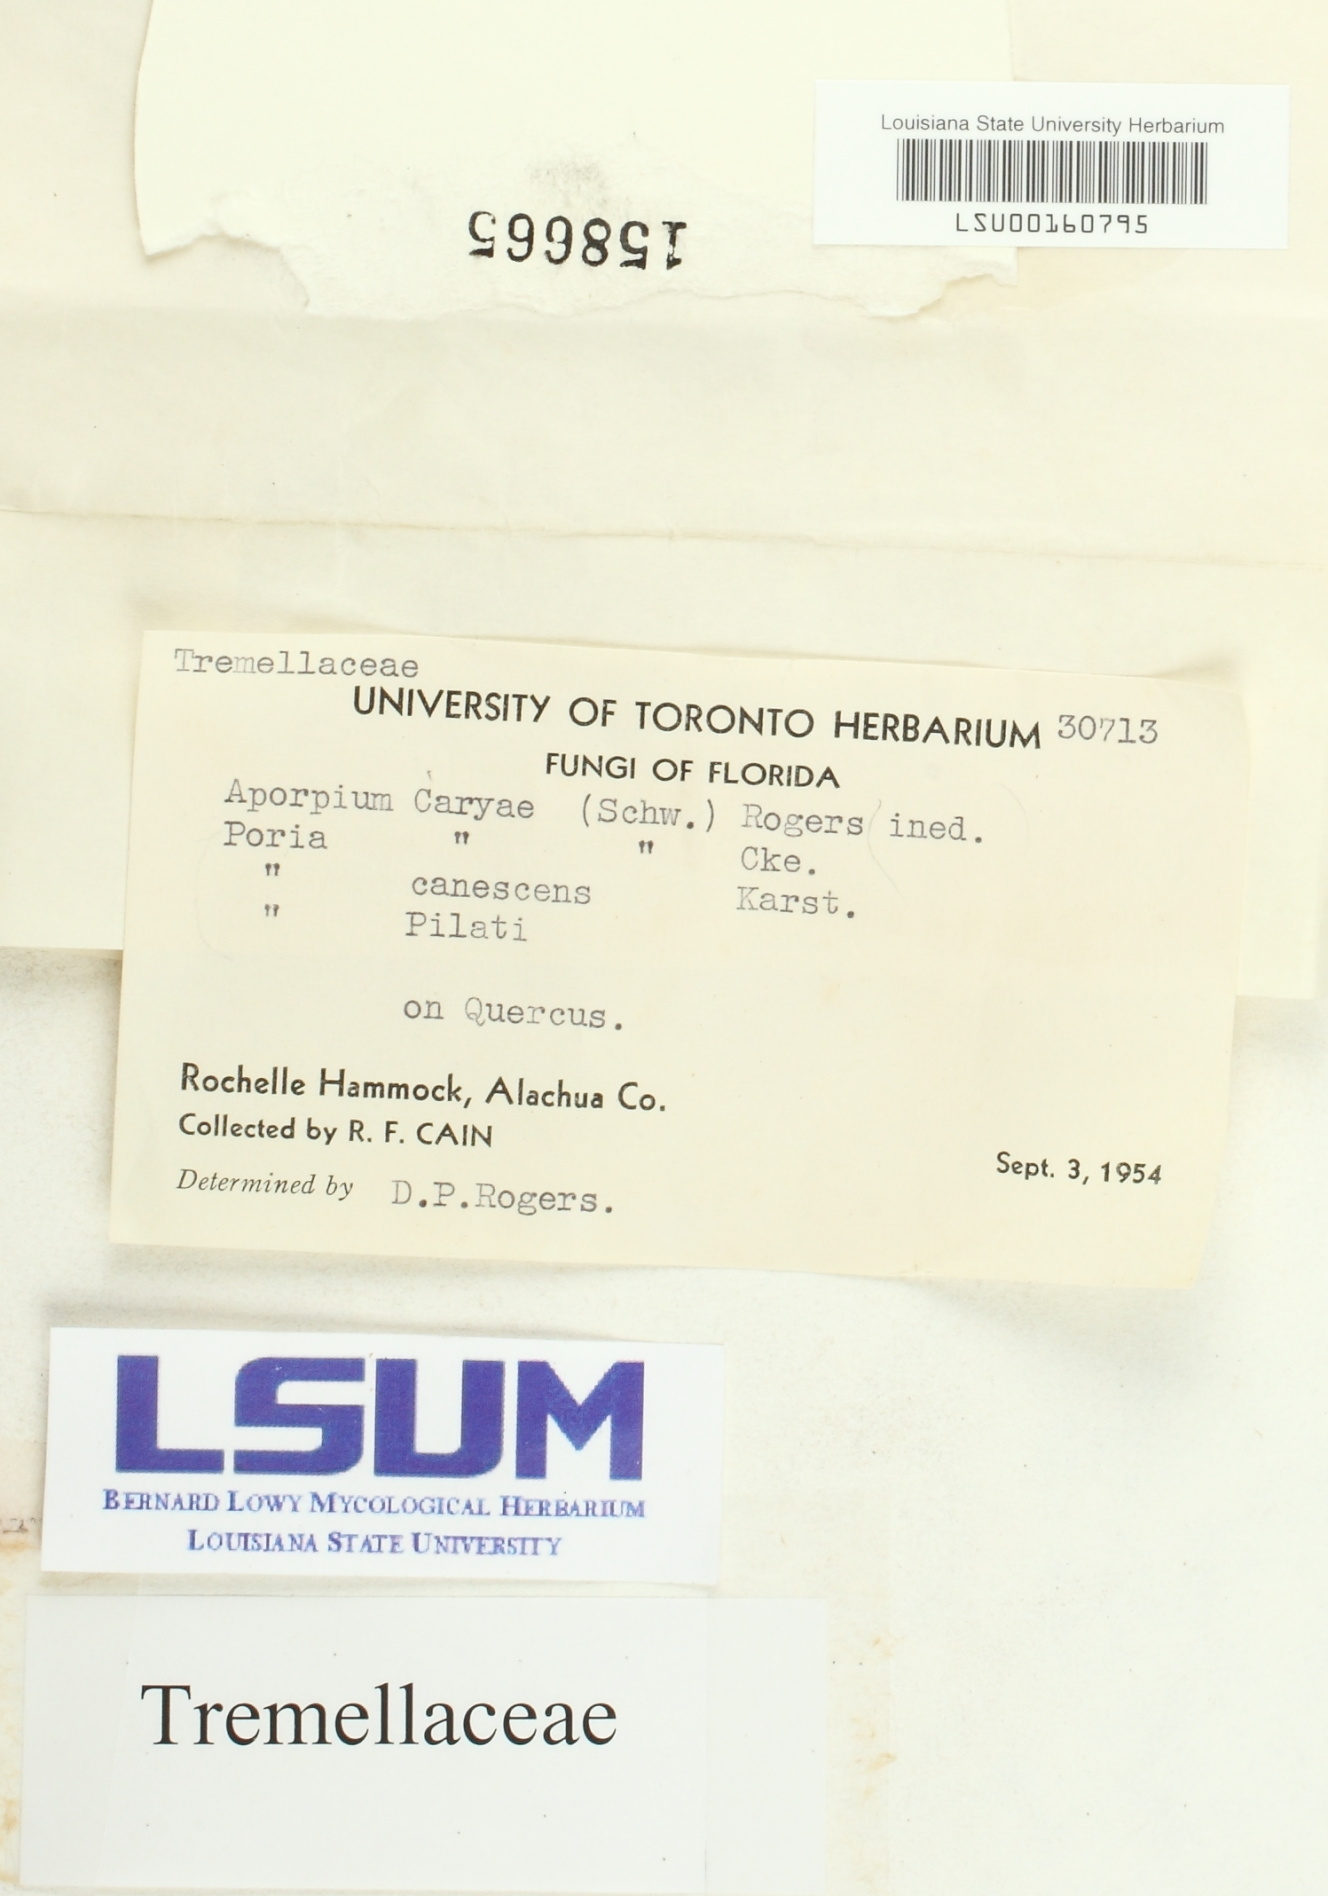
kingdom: Fungi
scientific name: Fungi
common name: Fungi
